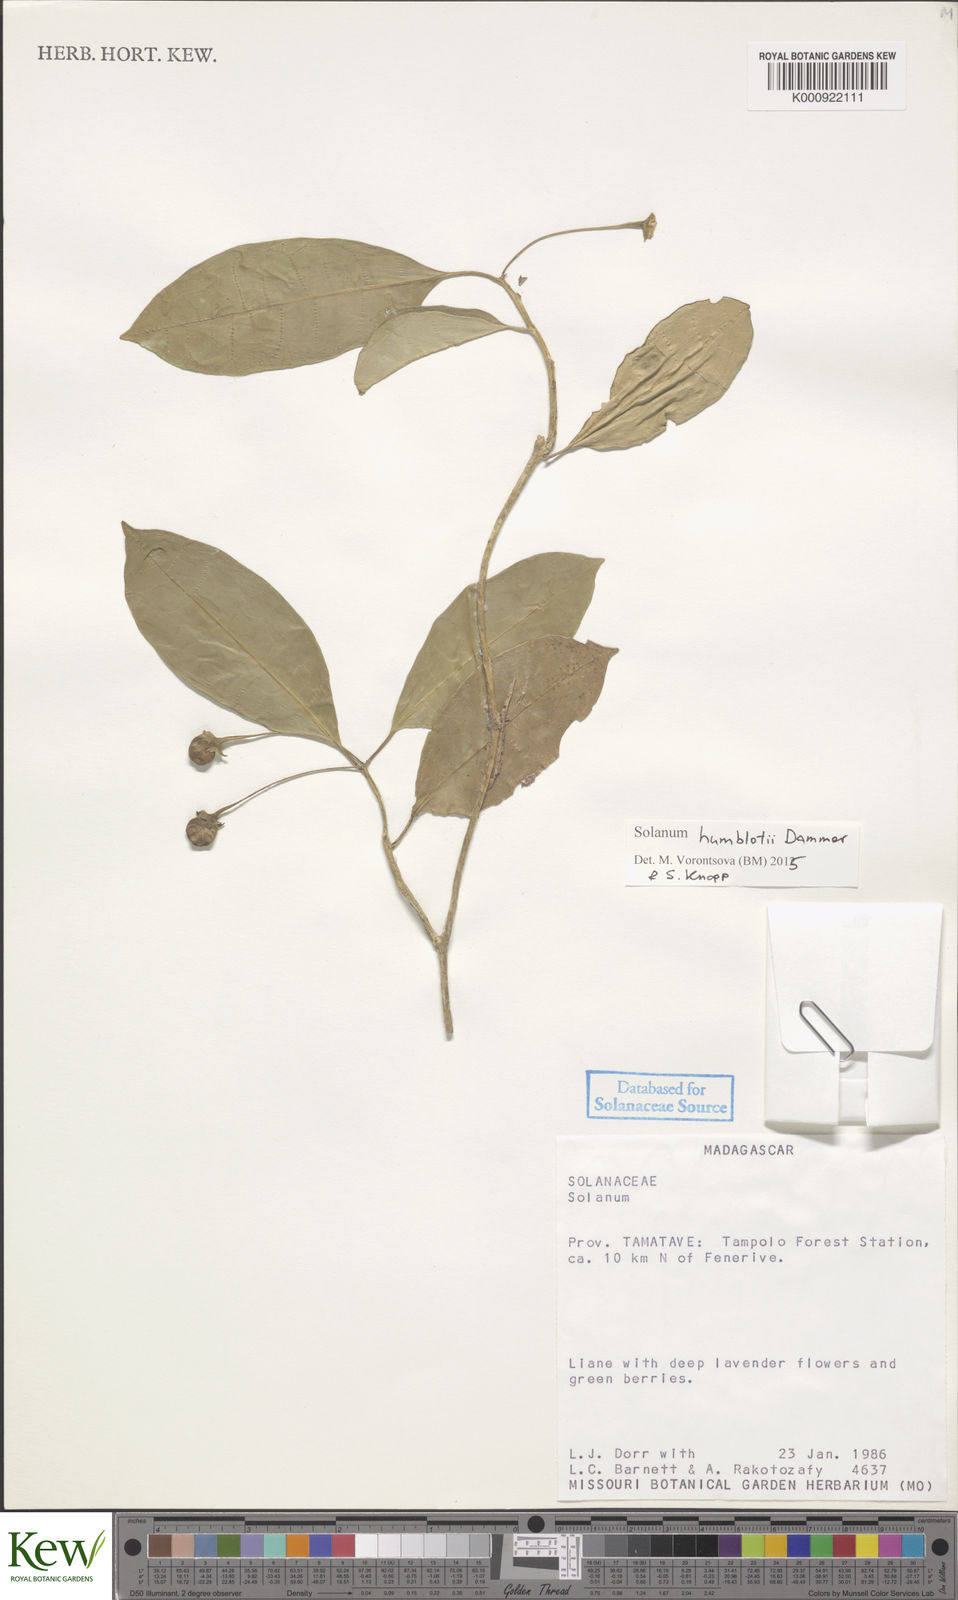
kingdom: Plantae
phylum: Tracheophyta
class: Magnoliopsida
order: Solanales
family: Solanaceae
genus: Solanum
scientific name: Solanum humblotii
